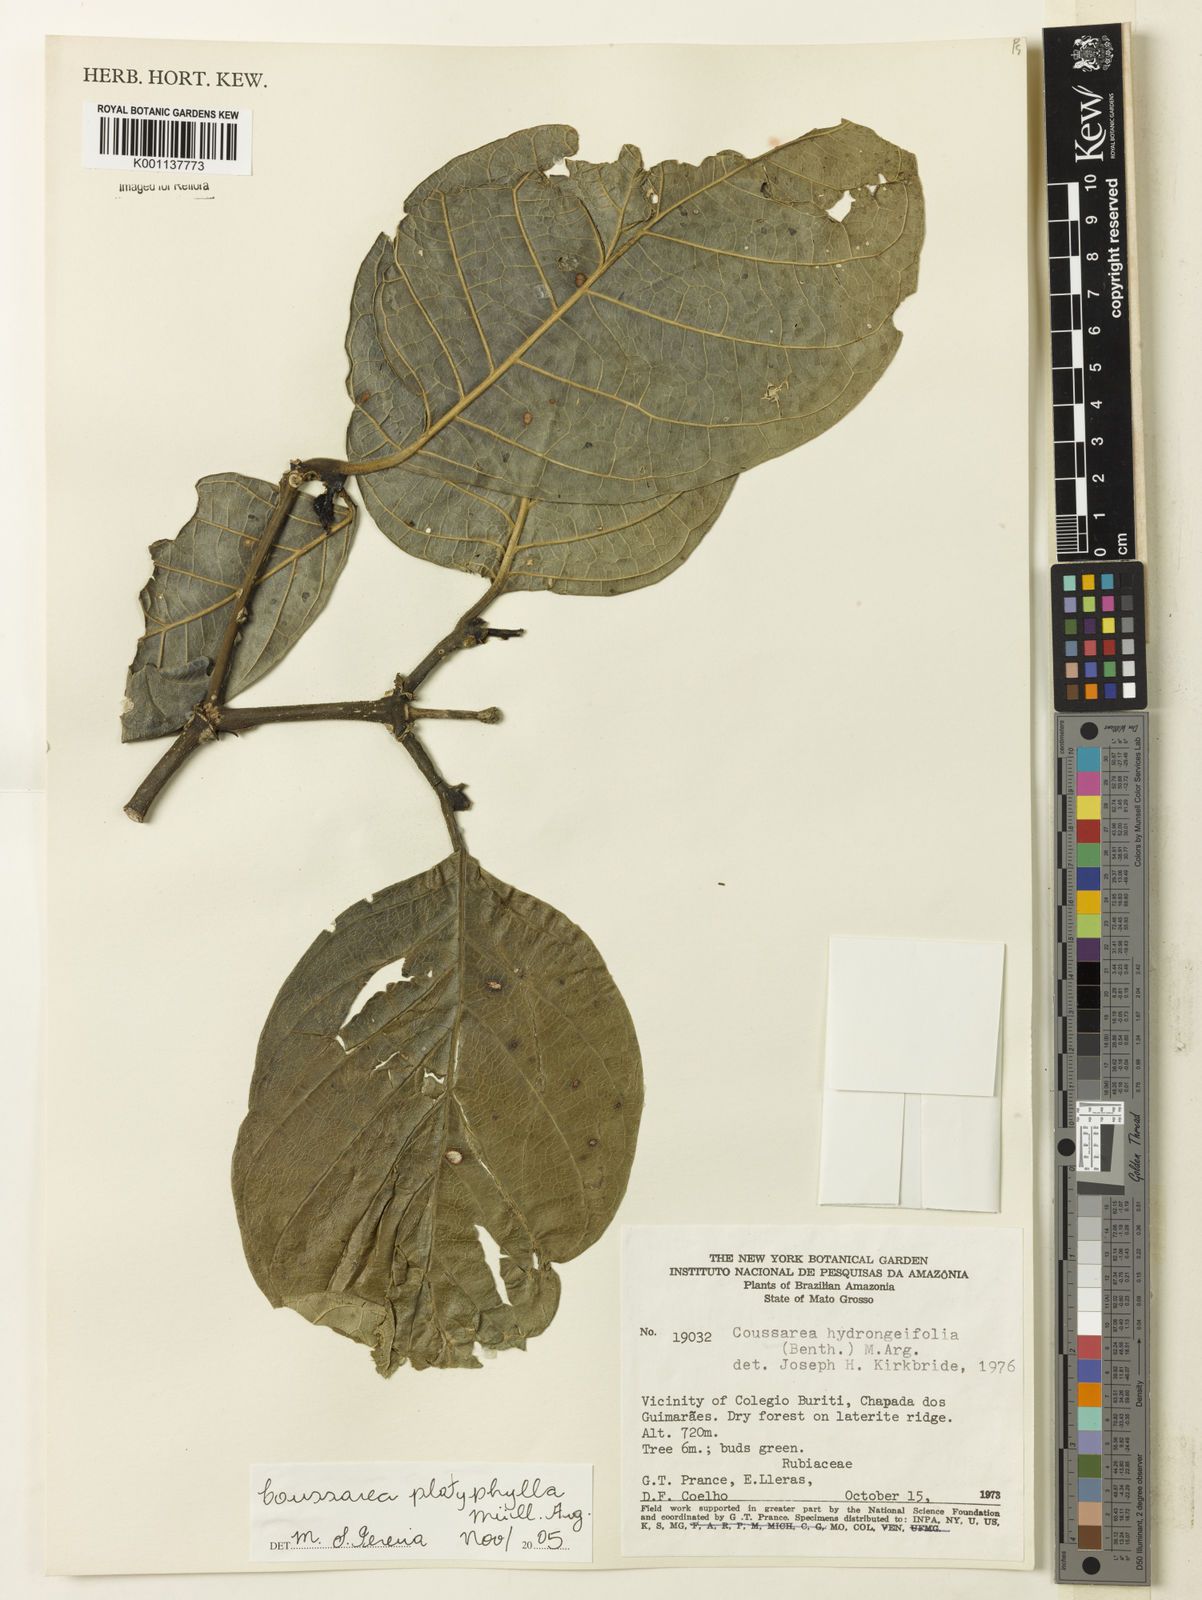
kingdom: Plantae
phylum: Tracheophyta
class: Magnoliopsida
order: Gentianales
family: Rubiaceae
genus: Coussarea
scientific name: Coussarea
